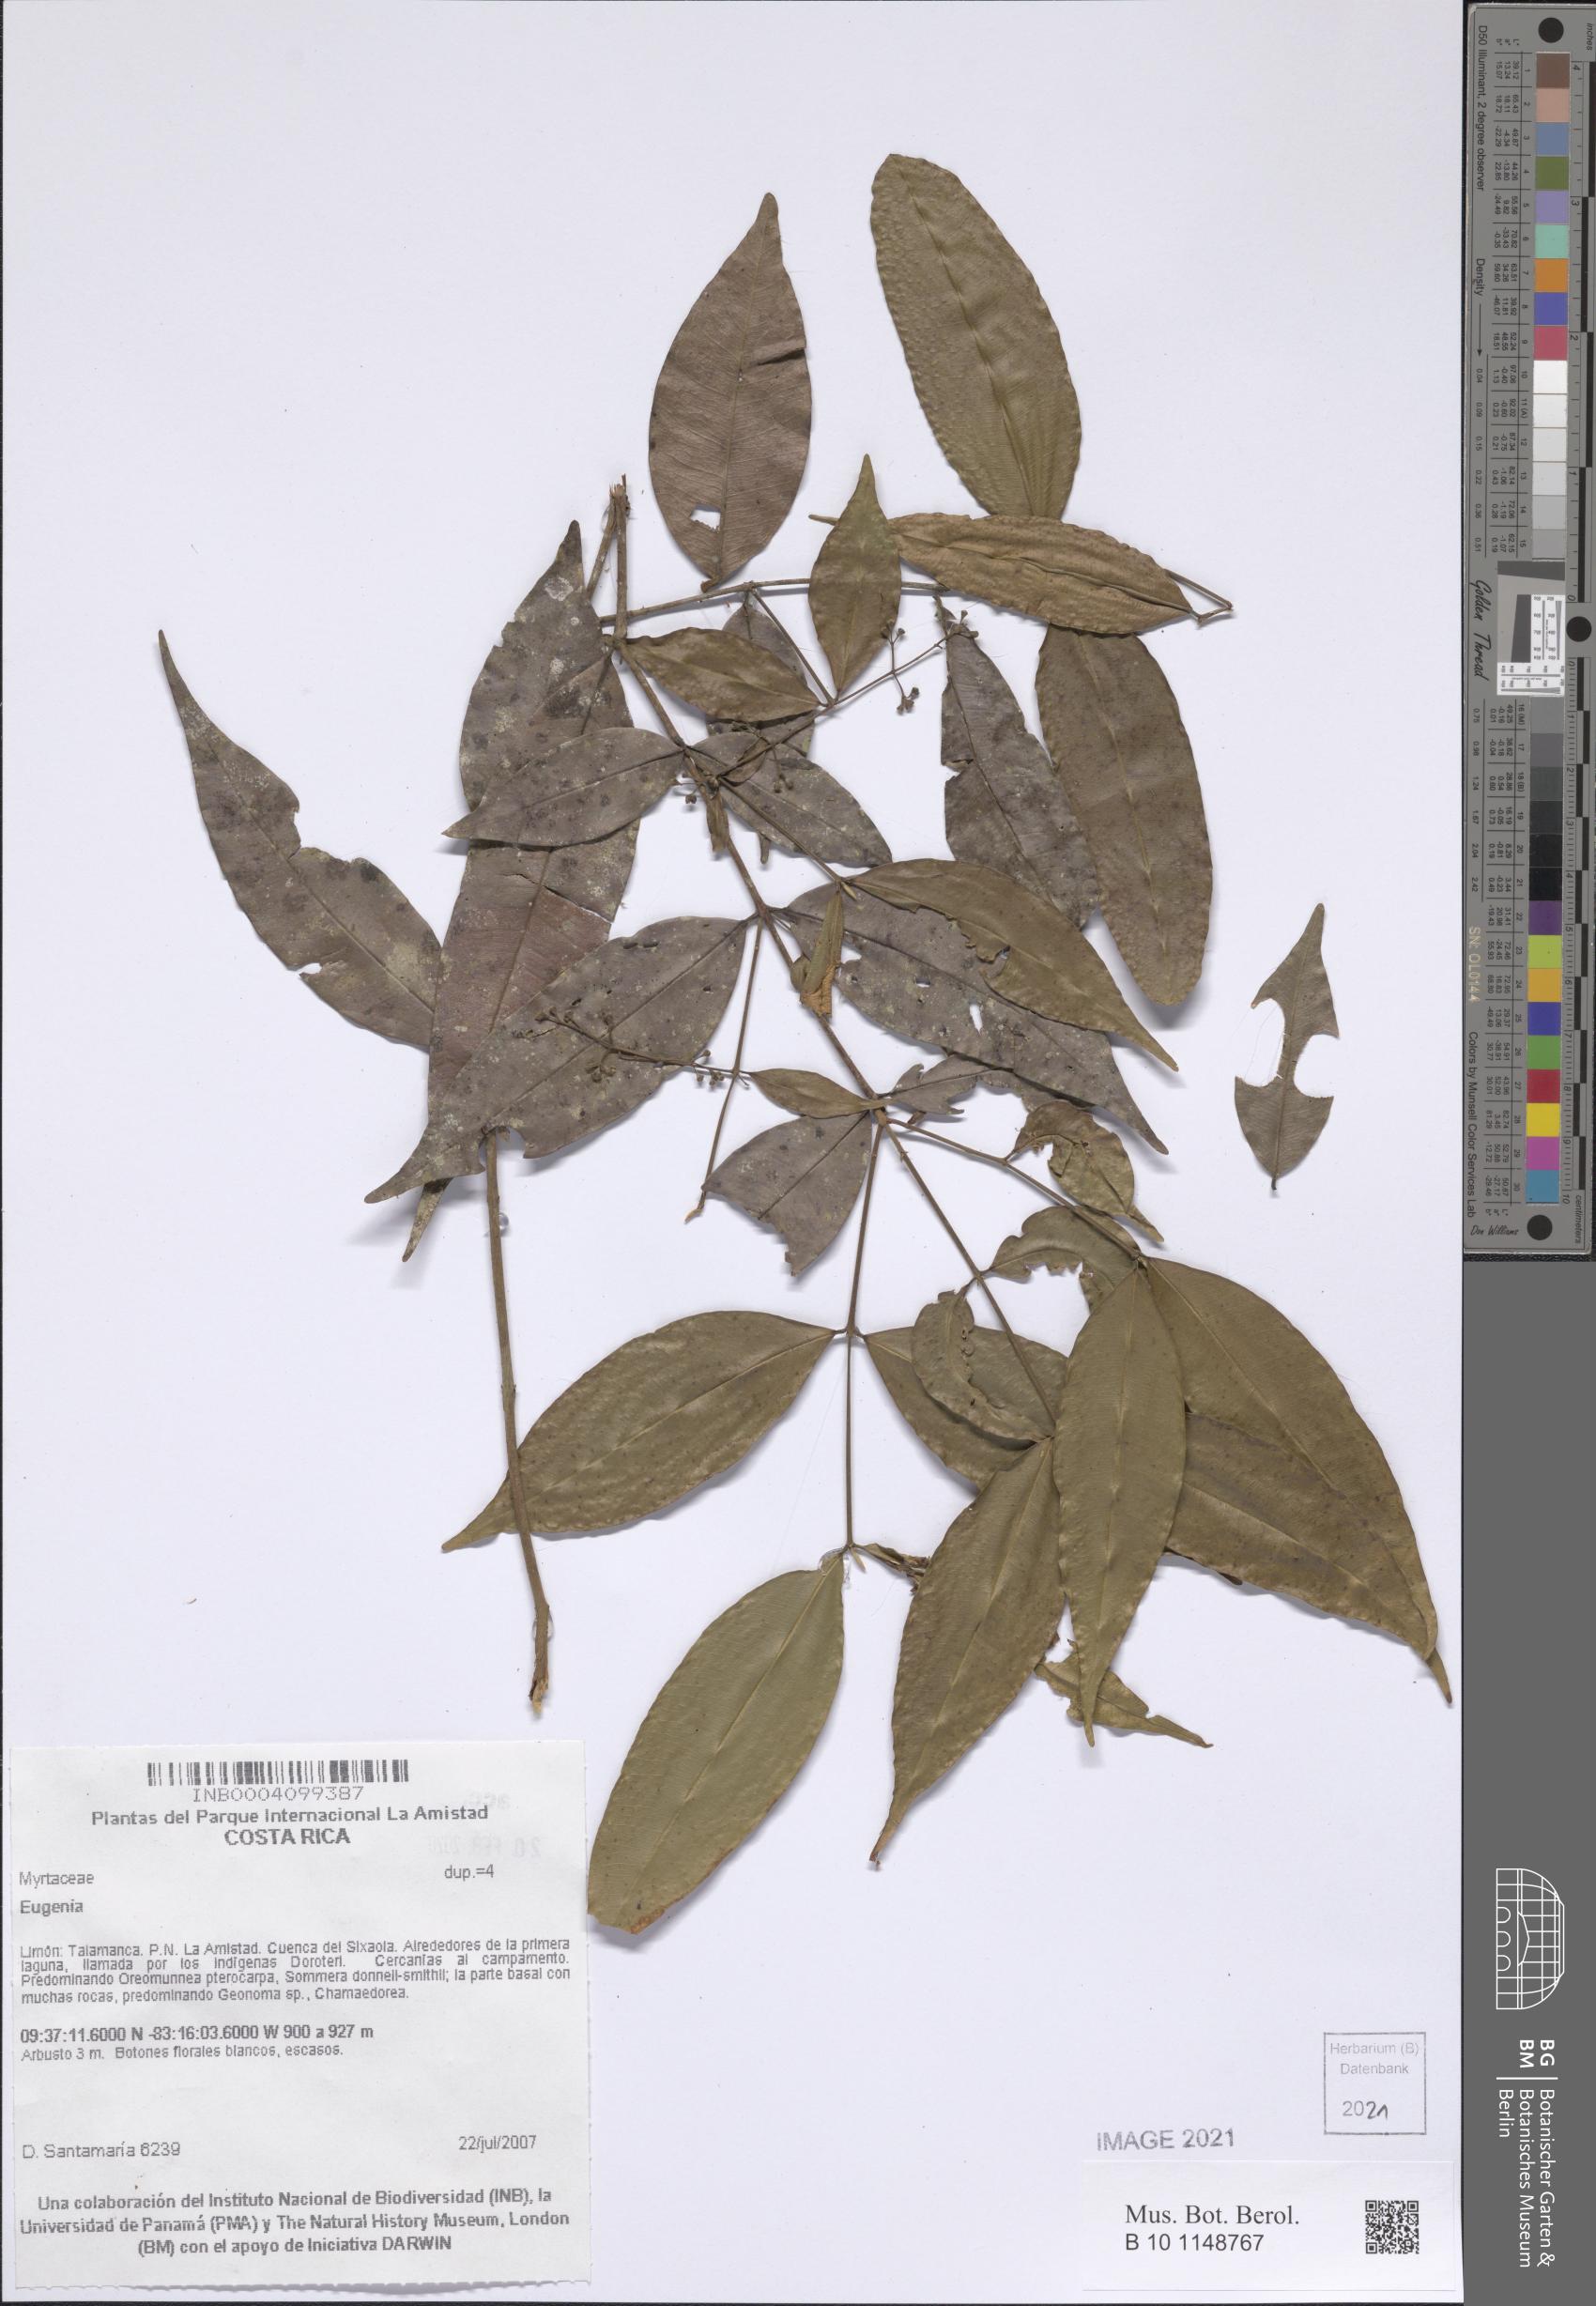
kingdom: Plantae
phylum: Tracheophyta
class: Magnoliopsida
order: Myrtales
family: Myrtaceae
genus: Eugenia
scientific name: Eugenia
